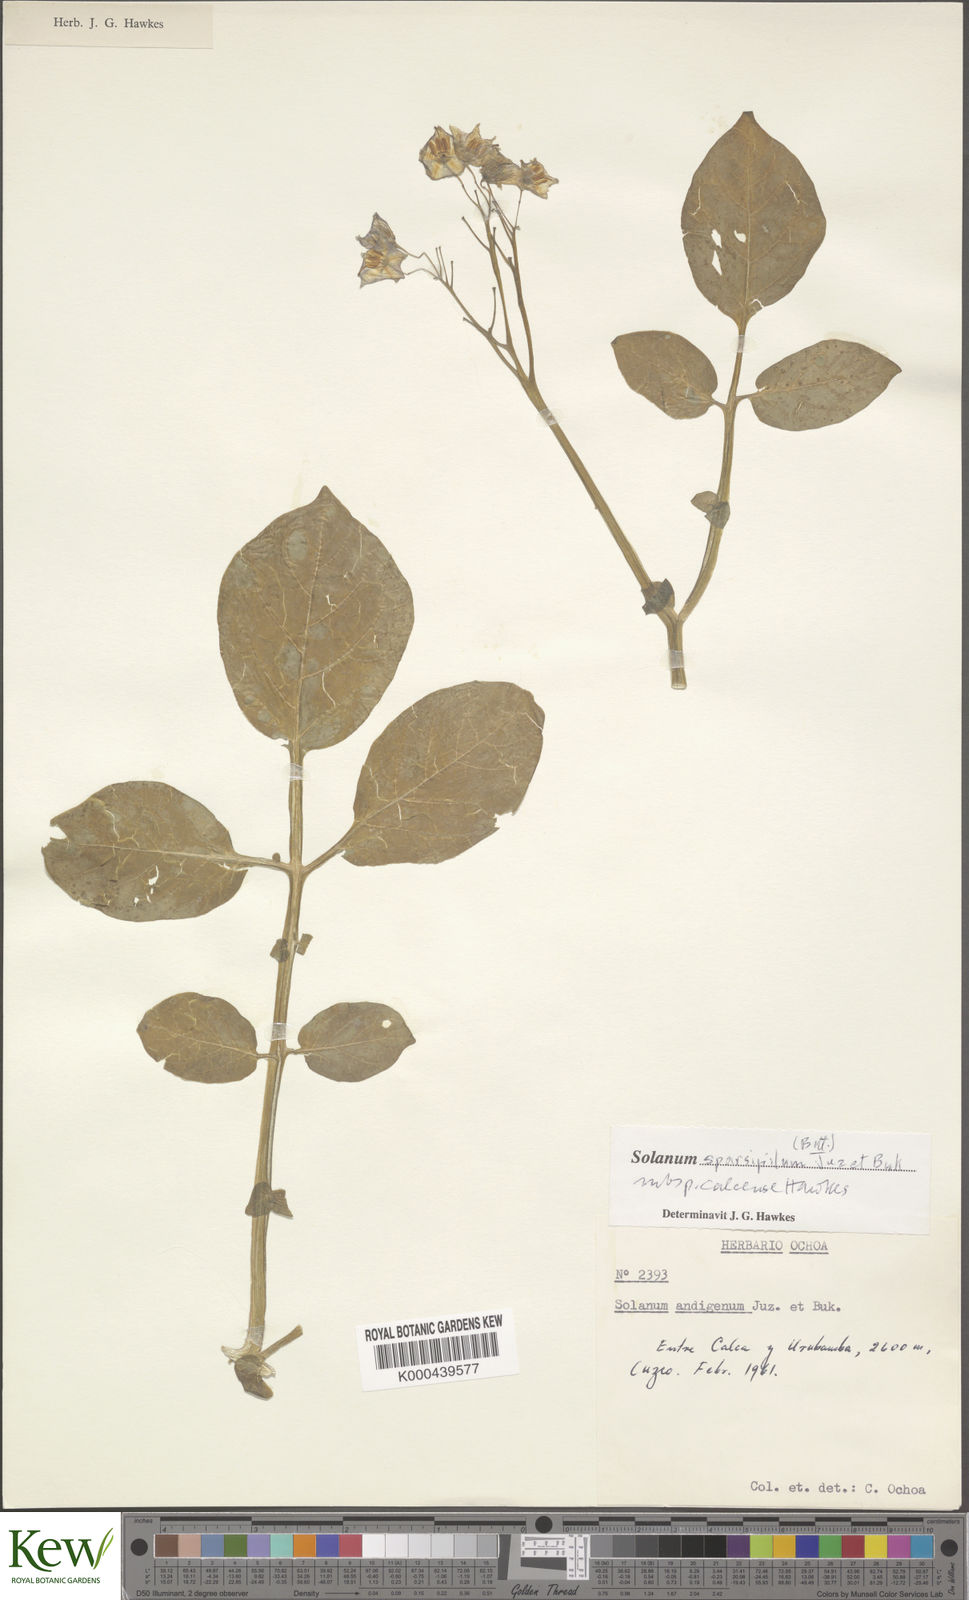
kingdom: Plantae
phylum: Tracheophyta
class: Magnoliopsida
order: Solanales
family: Solanaceae
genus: Solanum
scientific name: Solanum brevicaule
